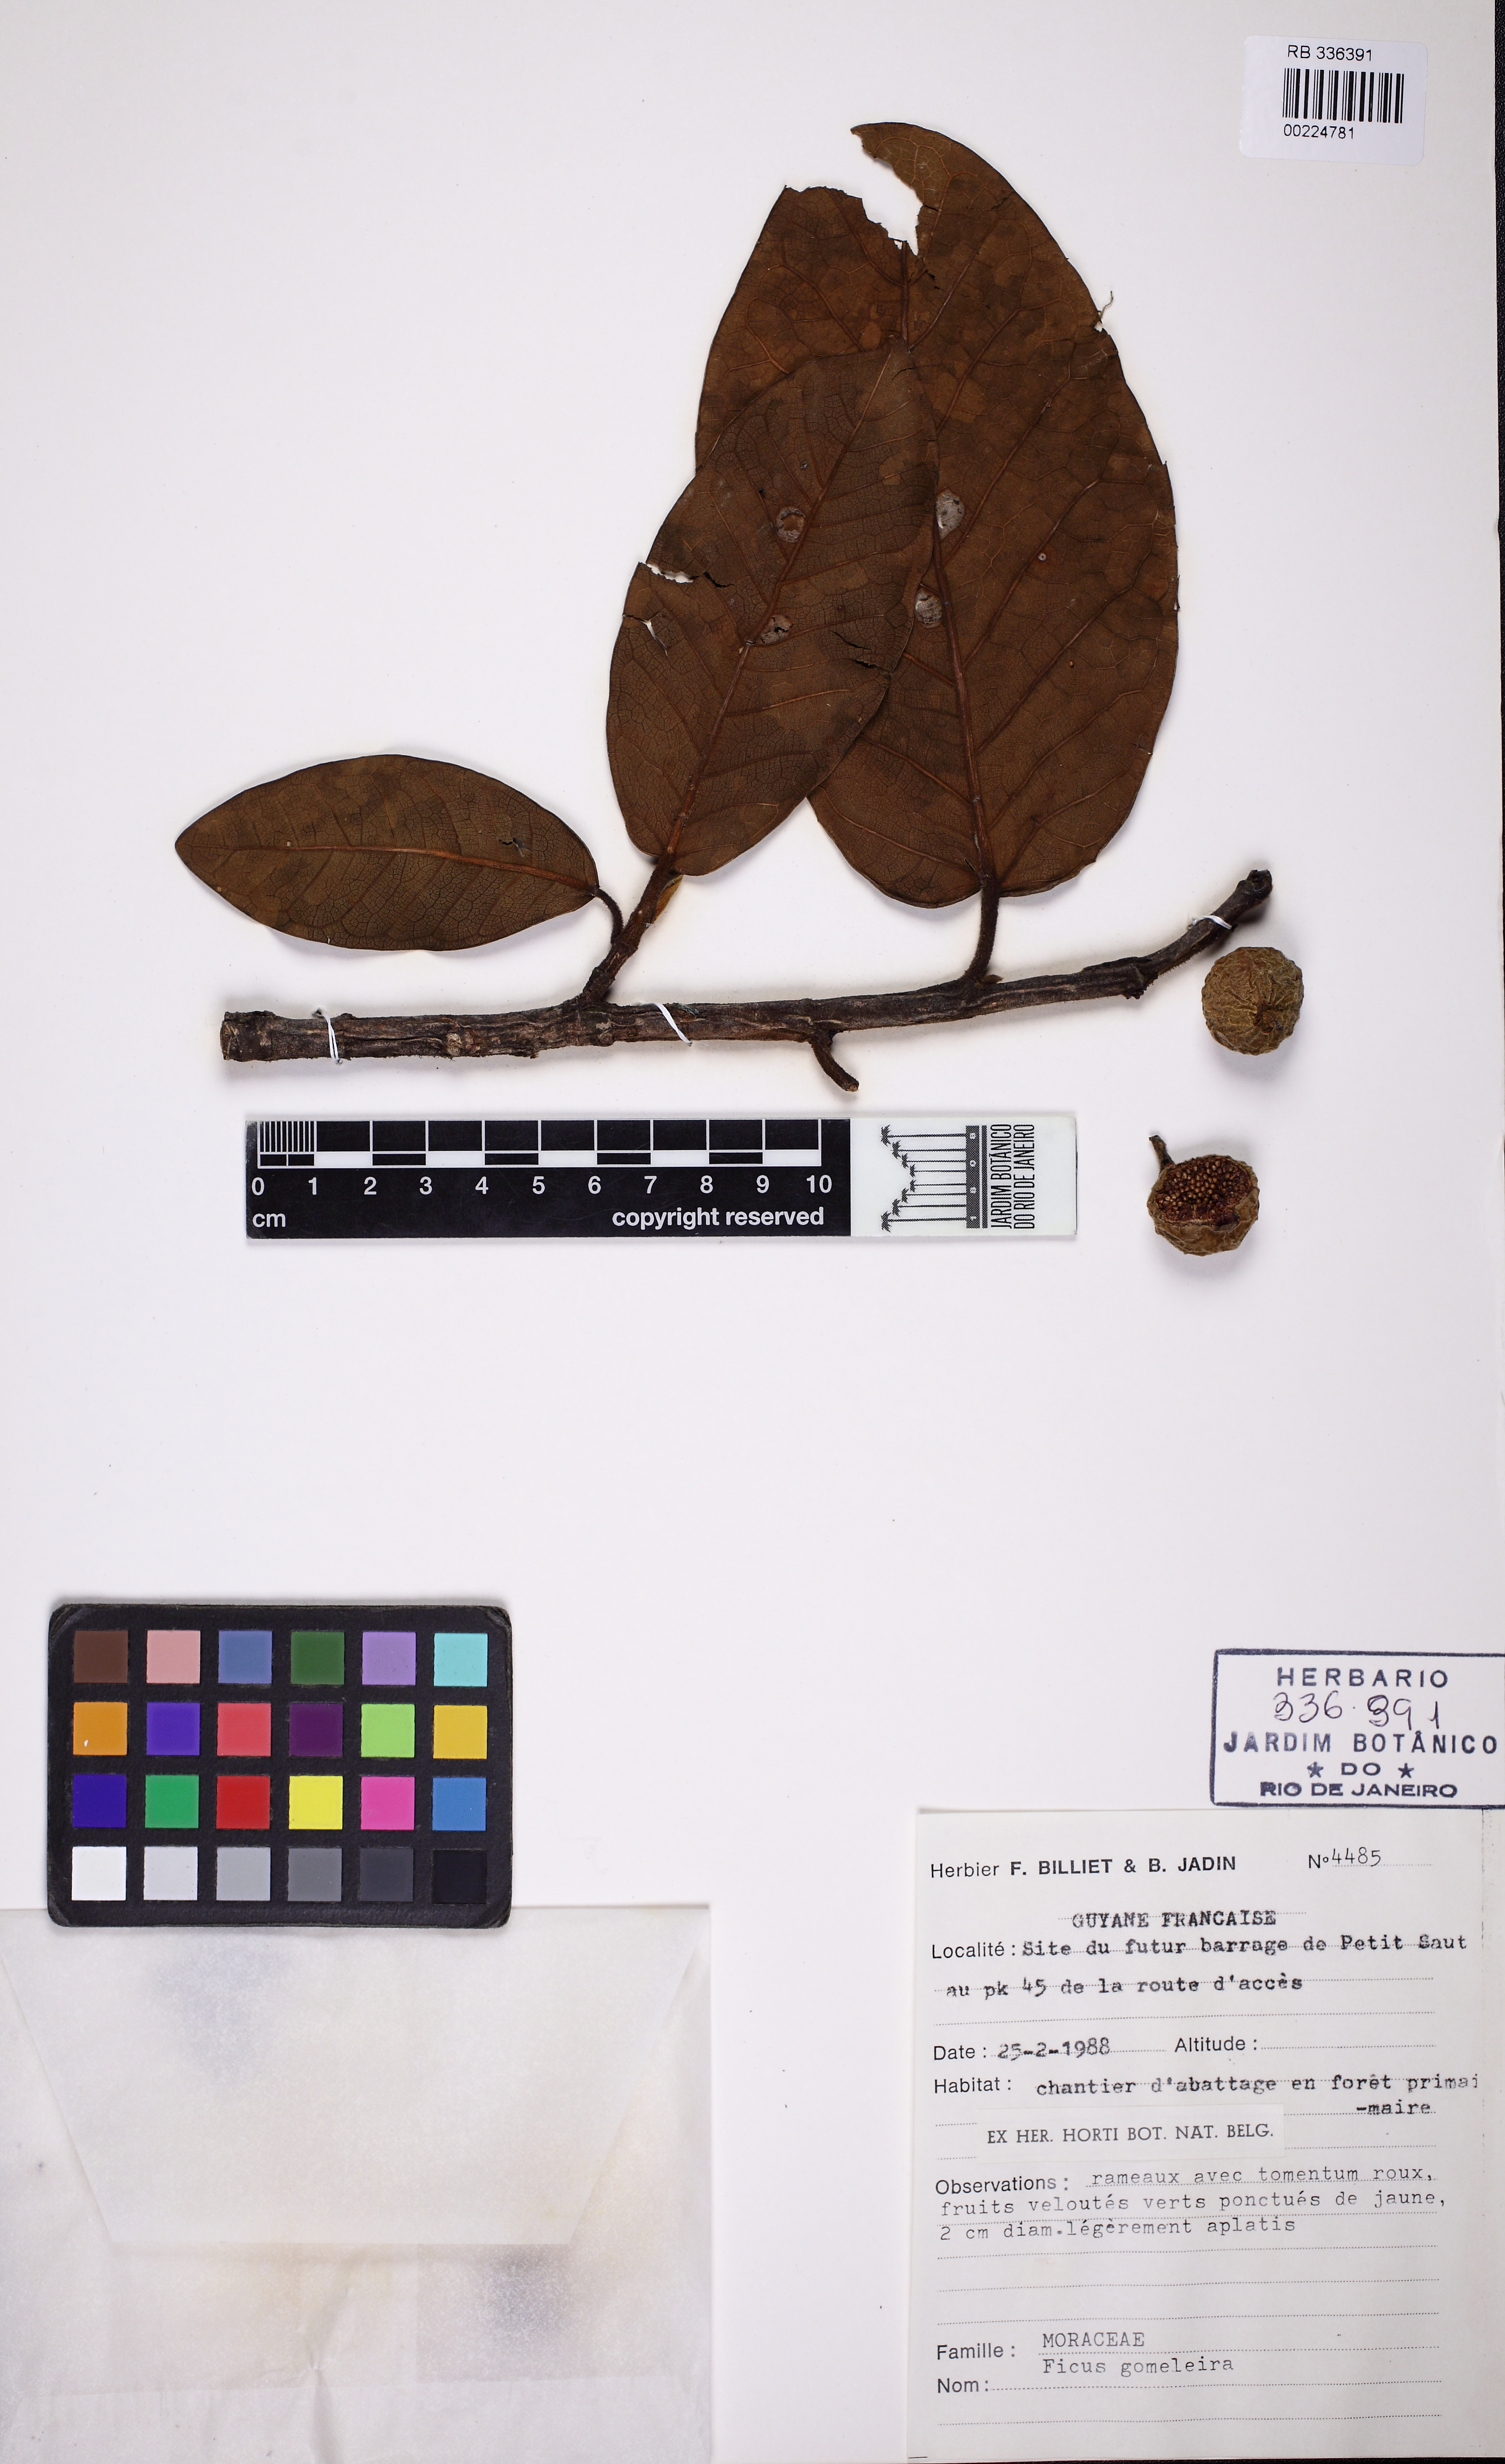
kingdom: Plantae
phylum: Tracheophyta
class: Magnoliopsida
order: Rosales
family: Moraceae
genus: Ficus
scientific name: Ficus gomelleira
